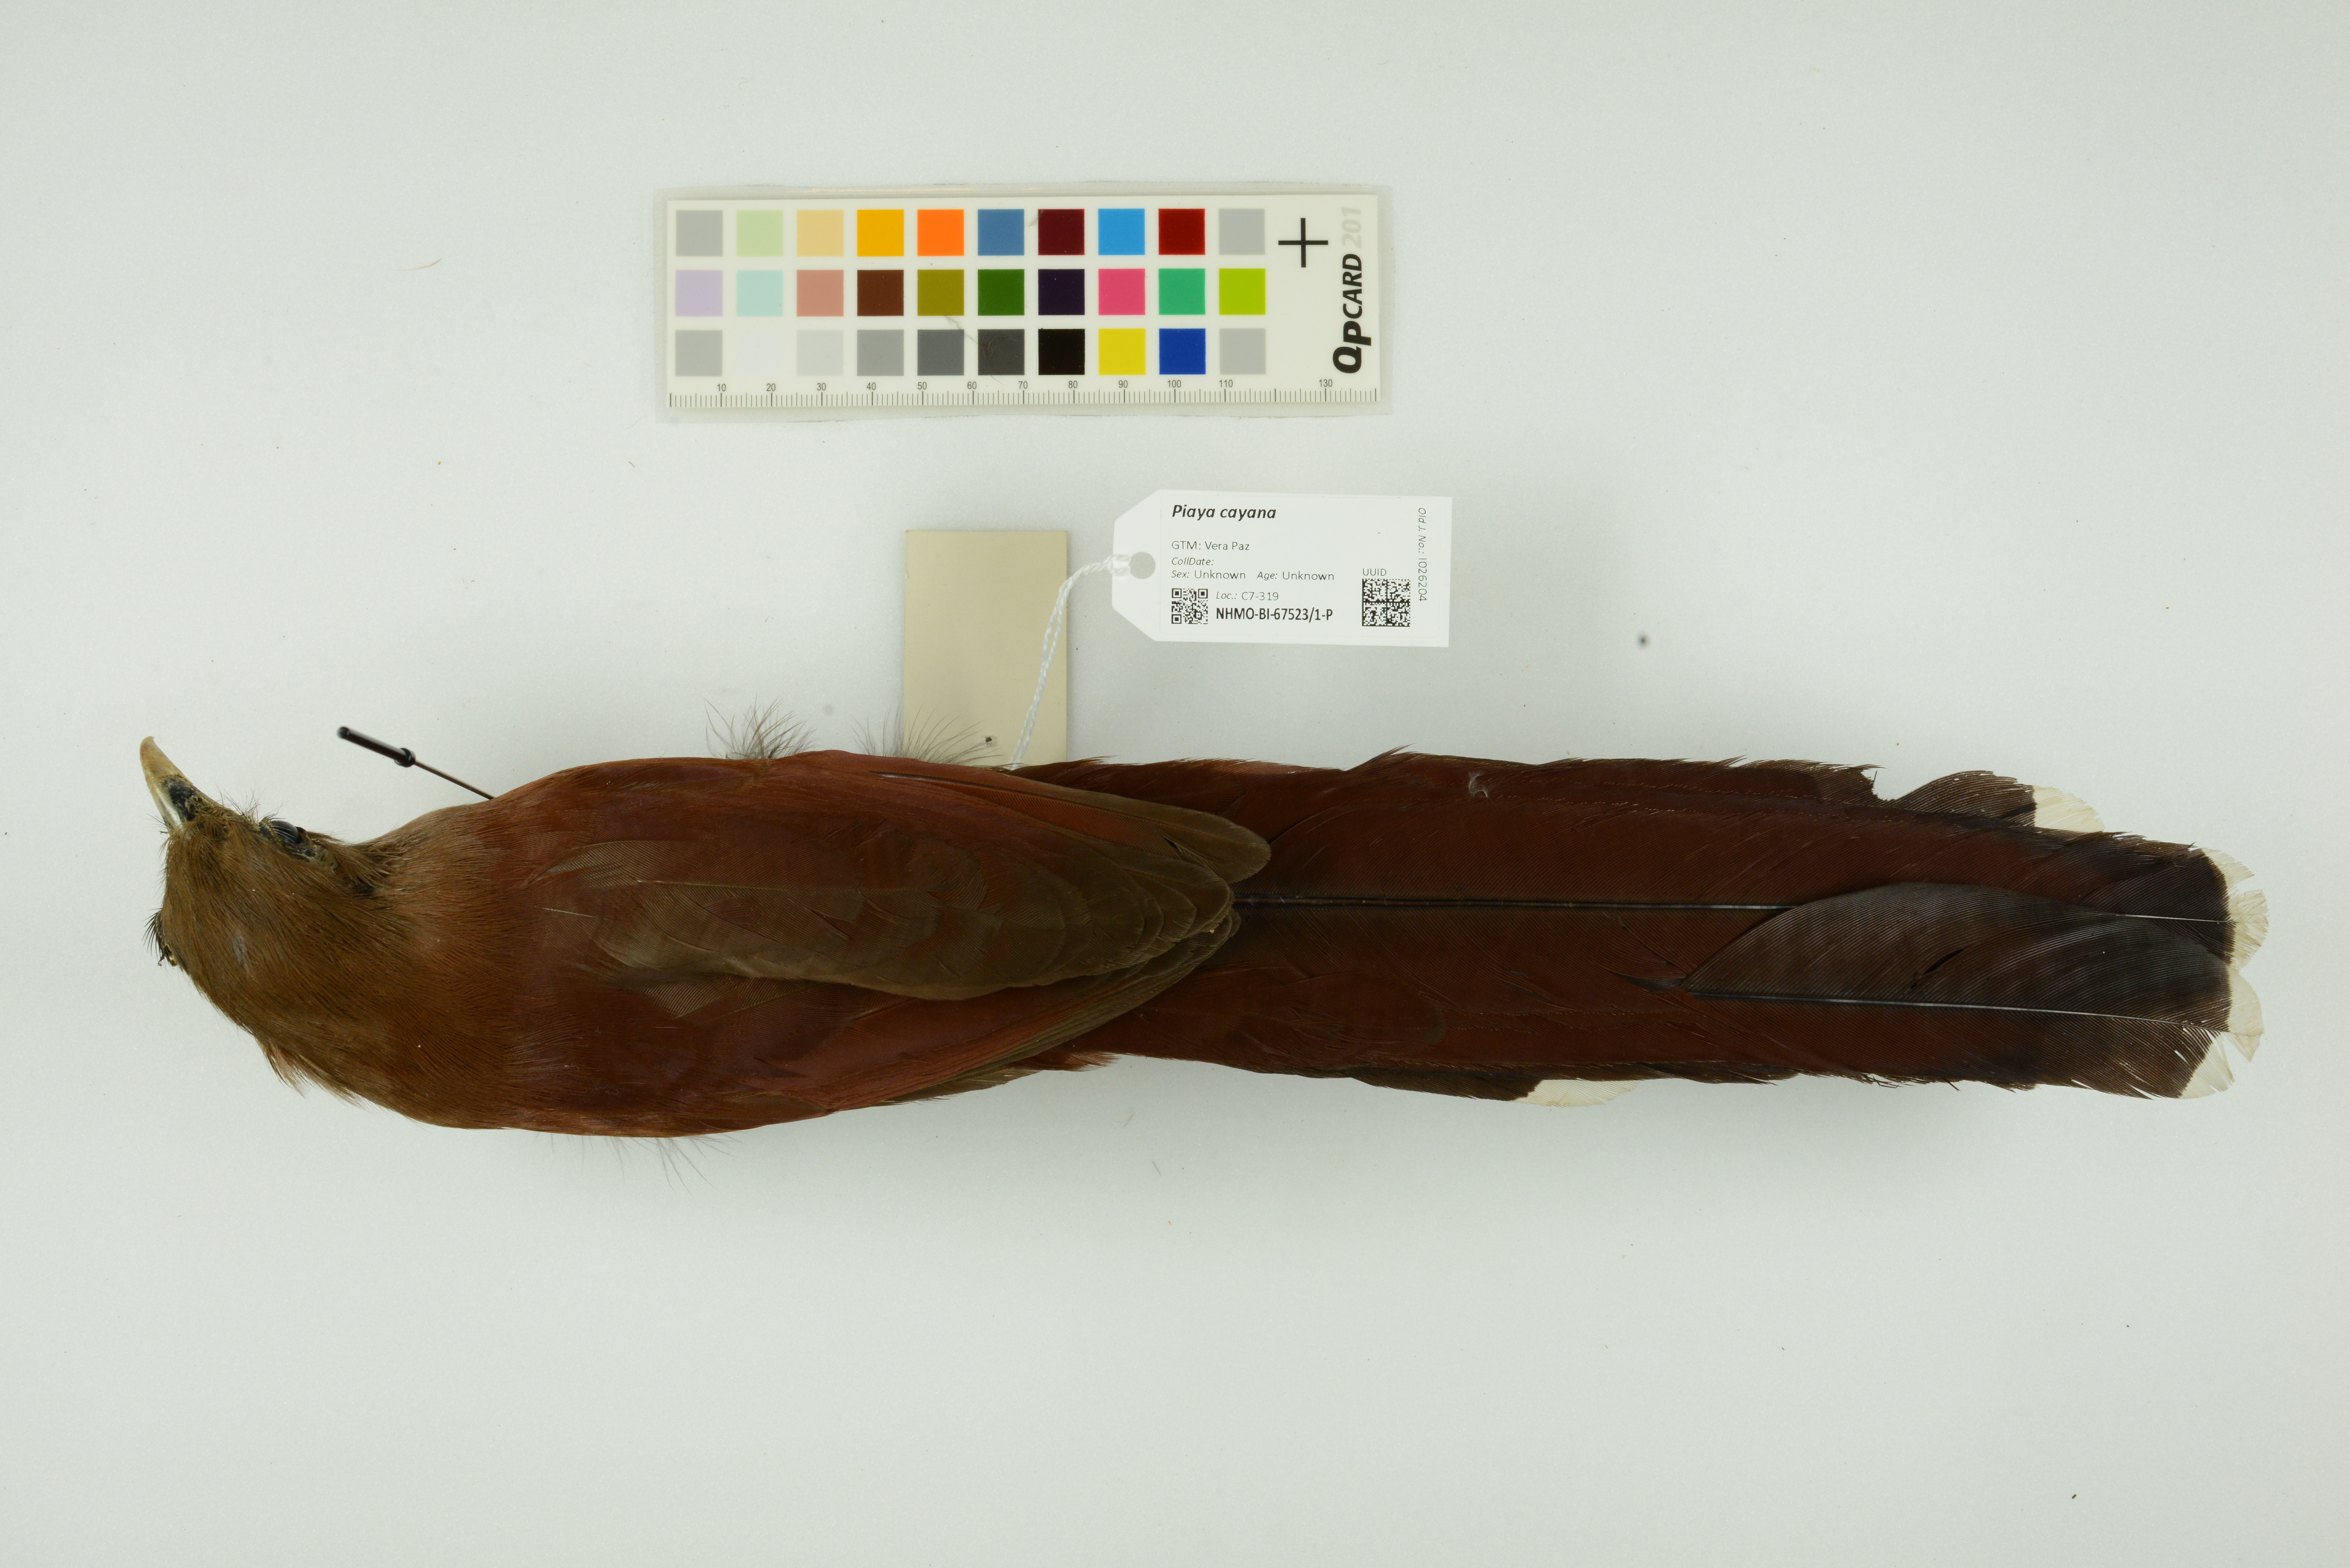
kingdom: Animalia
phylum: Chordata
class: Aves
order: Cuculiformes
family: Cuculidae
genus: Piaya
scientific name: Piaya cayana
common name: Squirrel cuckoo
